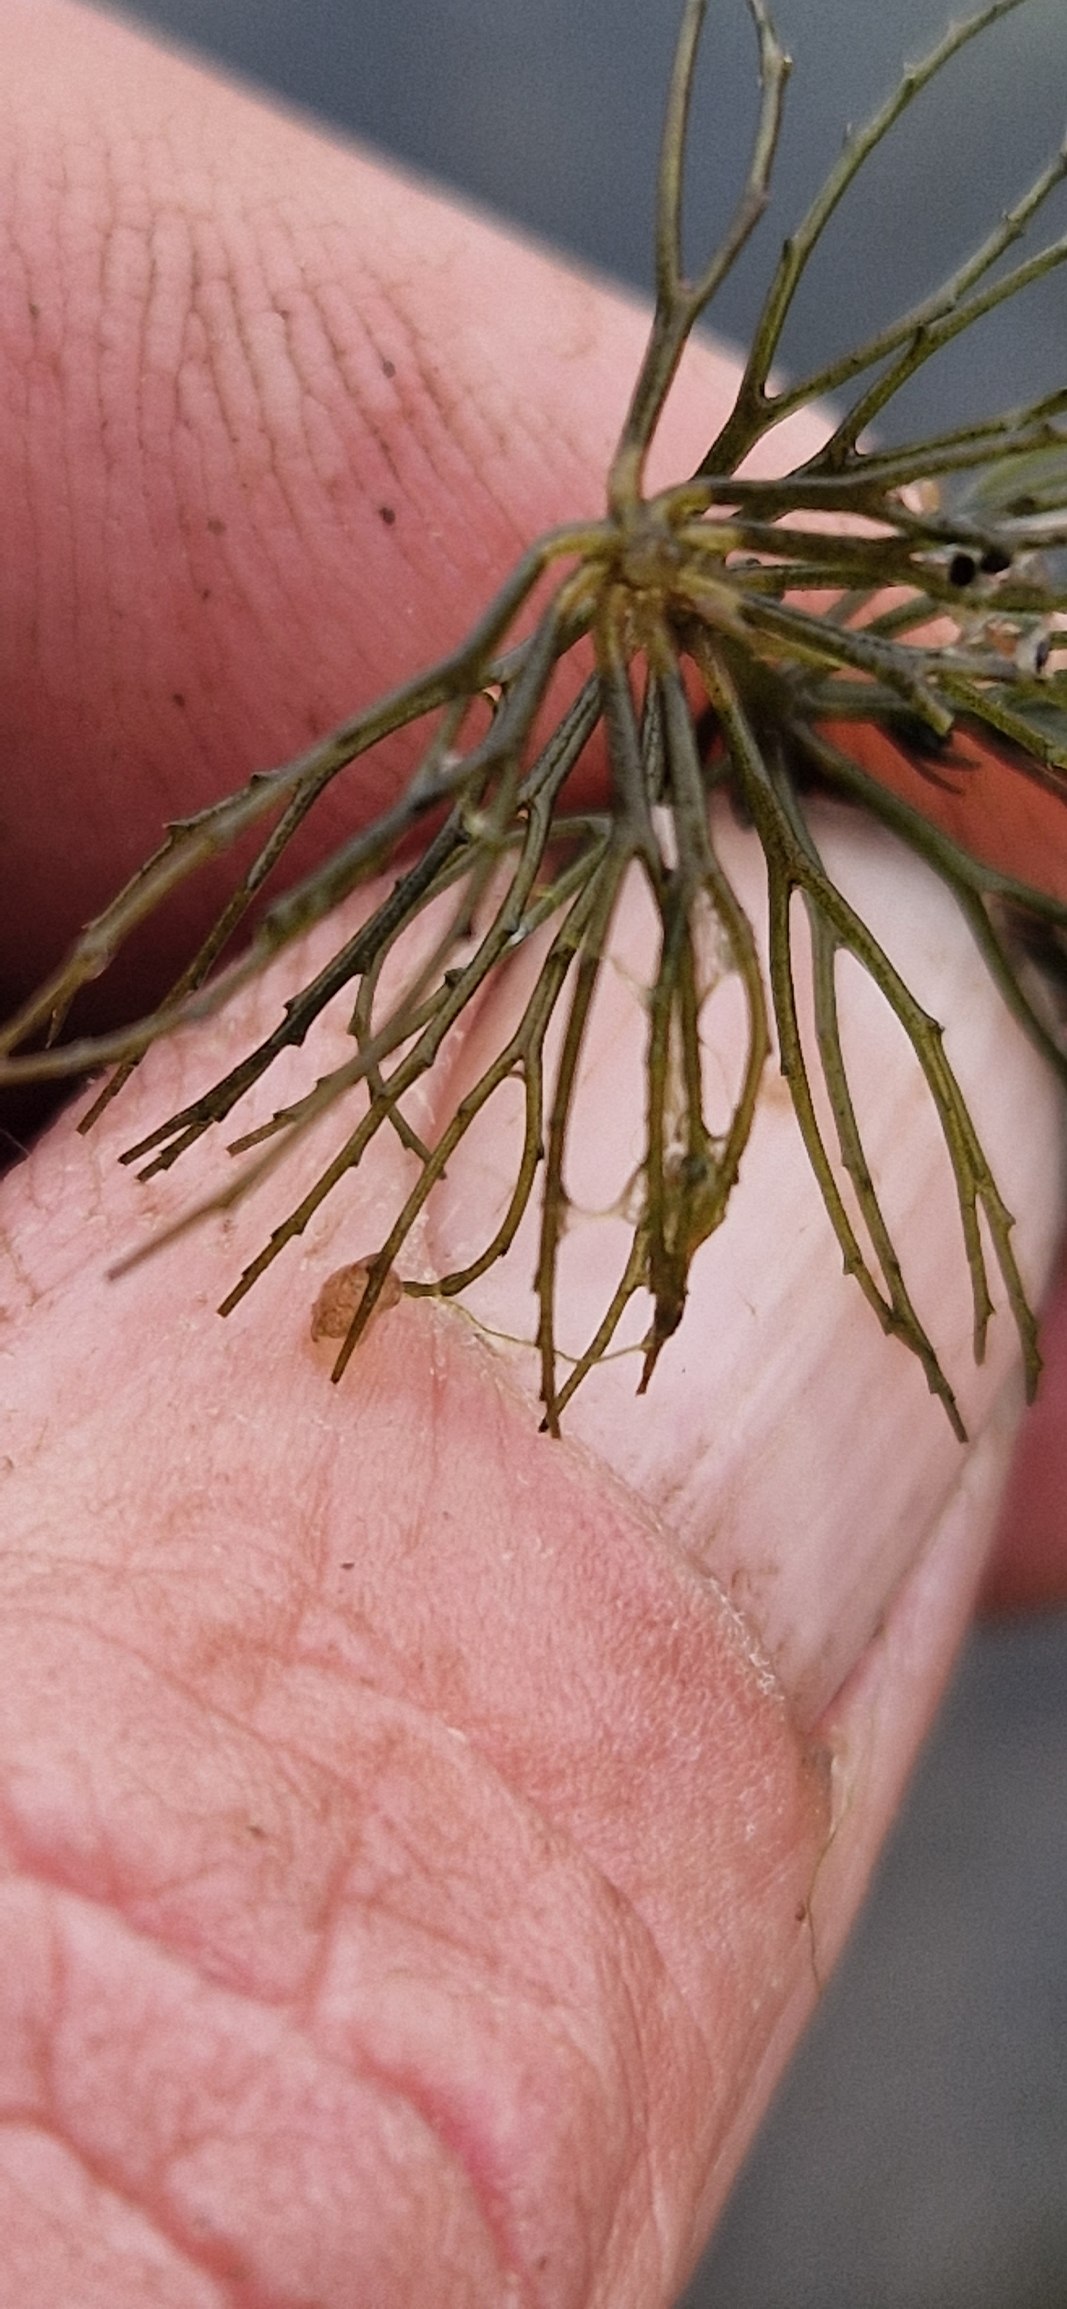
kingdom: Plantae
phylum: Tracheophyta
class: Magnoliopsida
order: Ceratophyllales
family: Ceratophyllaceae
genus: Ceratophyllum
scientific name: Ceratophyllum demersum
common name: Tornfrøet hornblad
